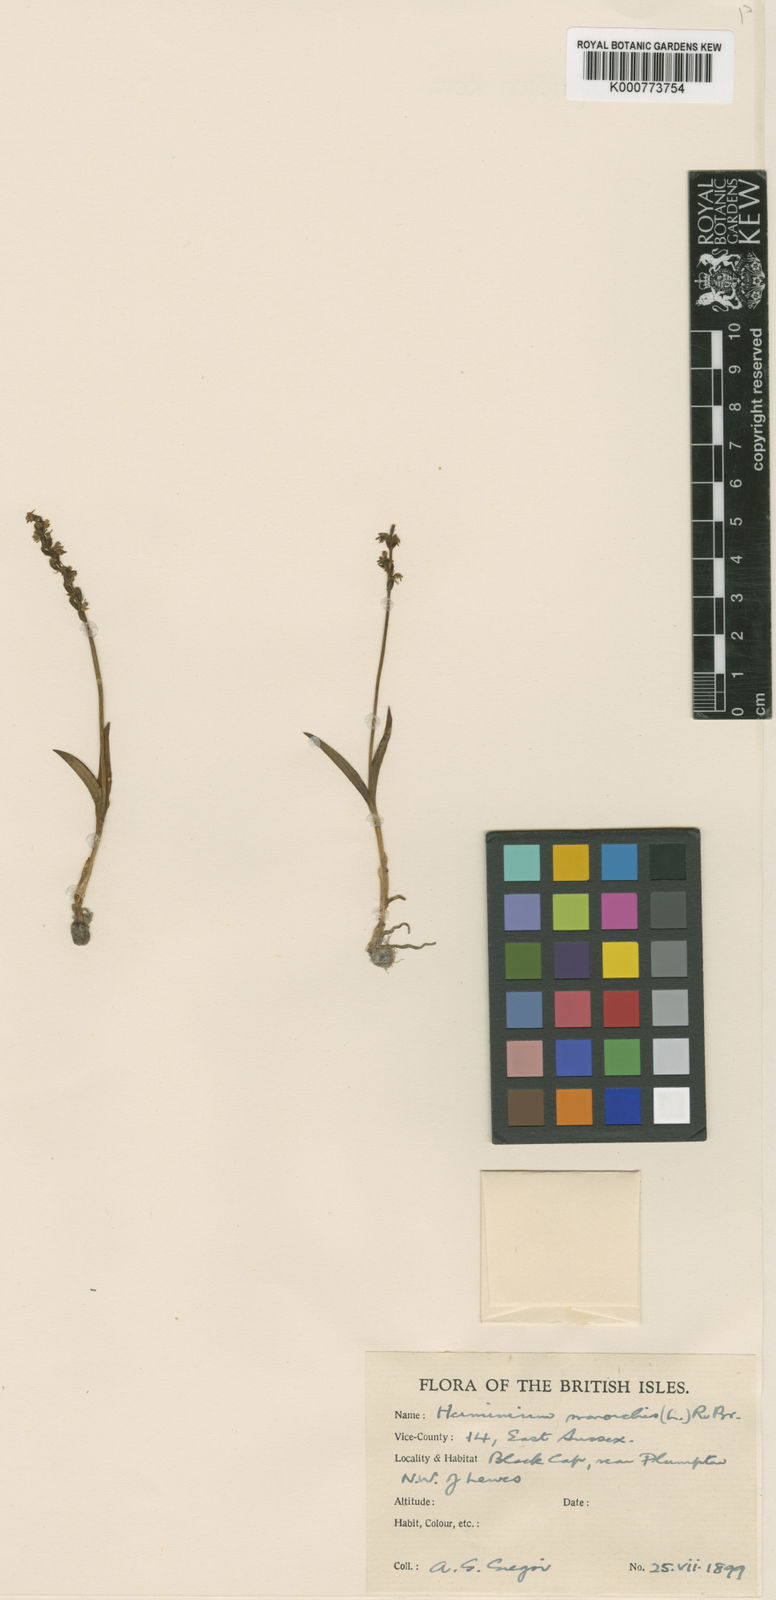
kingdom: Plantae
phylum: Tracheophyta
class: Liliopsida
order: Asparagales
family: Orchidaceae
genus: Herminium
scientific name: Herminium monorchis
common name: Musk orchid
